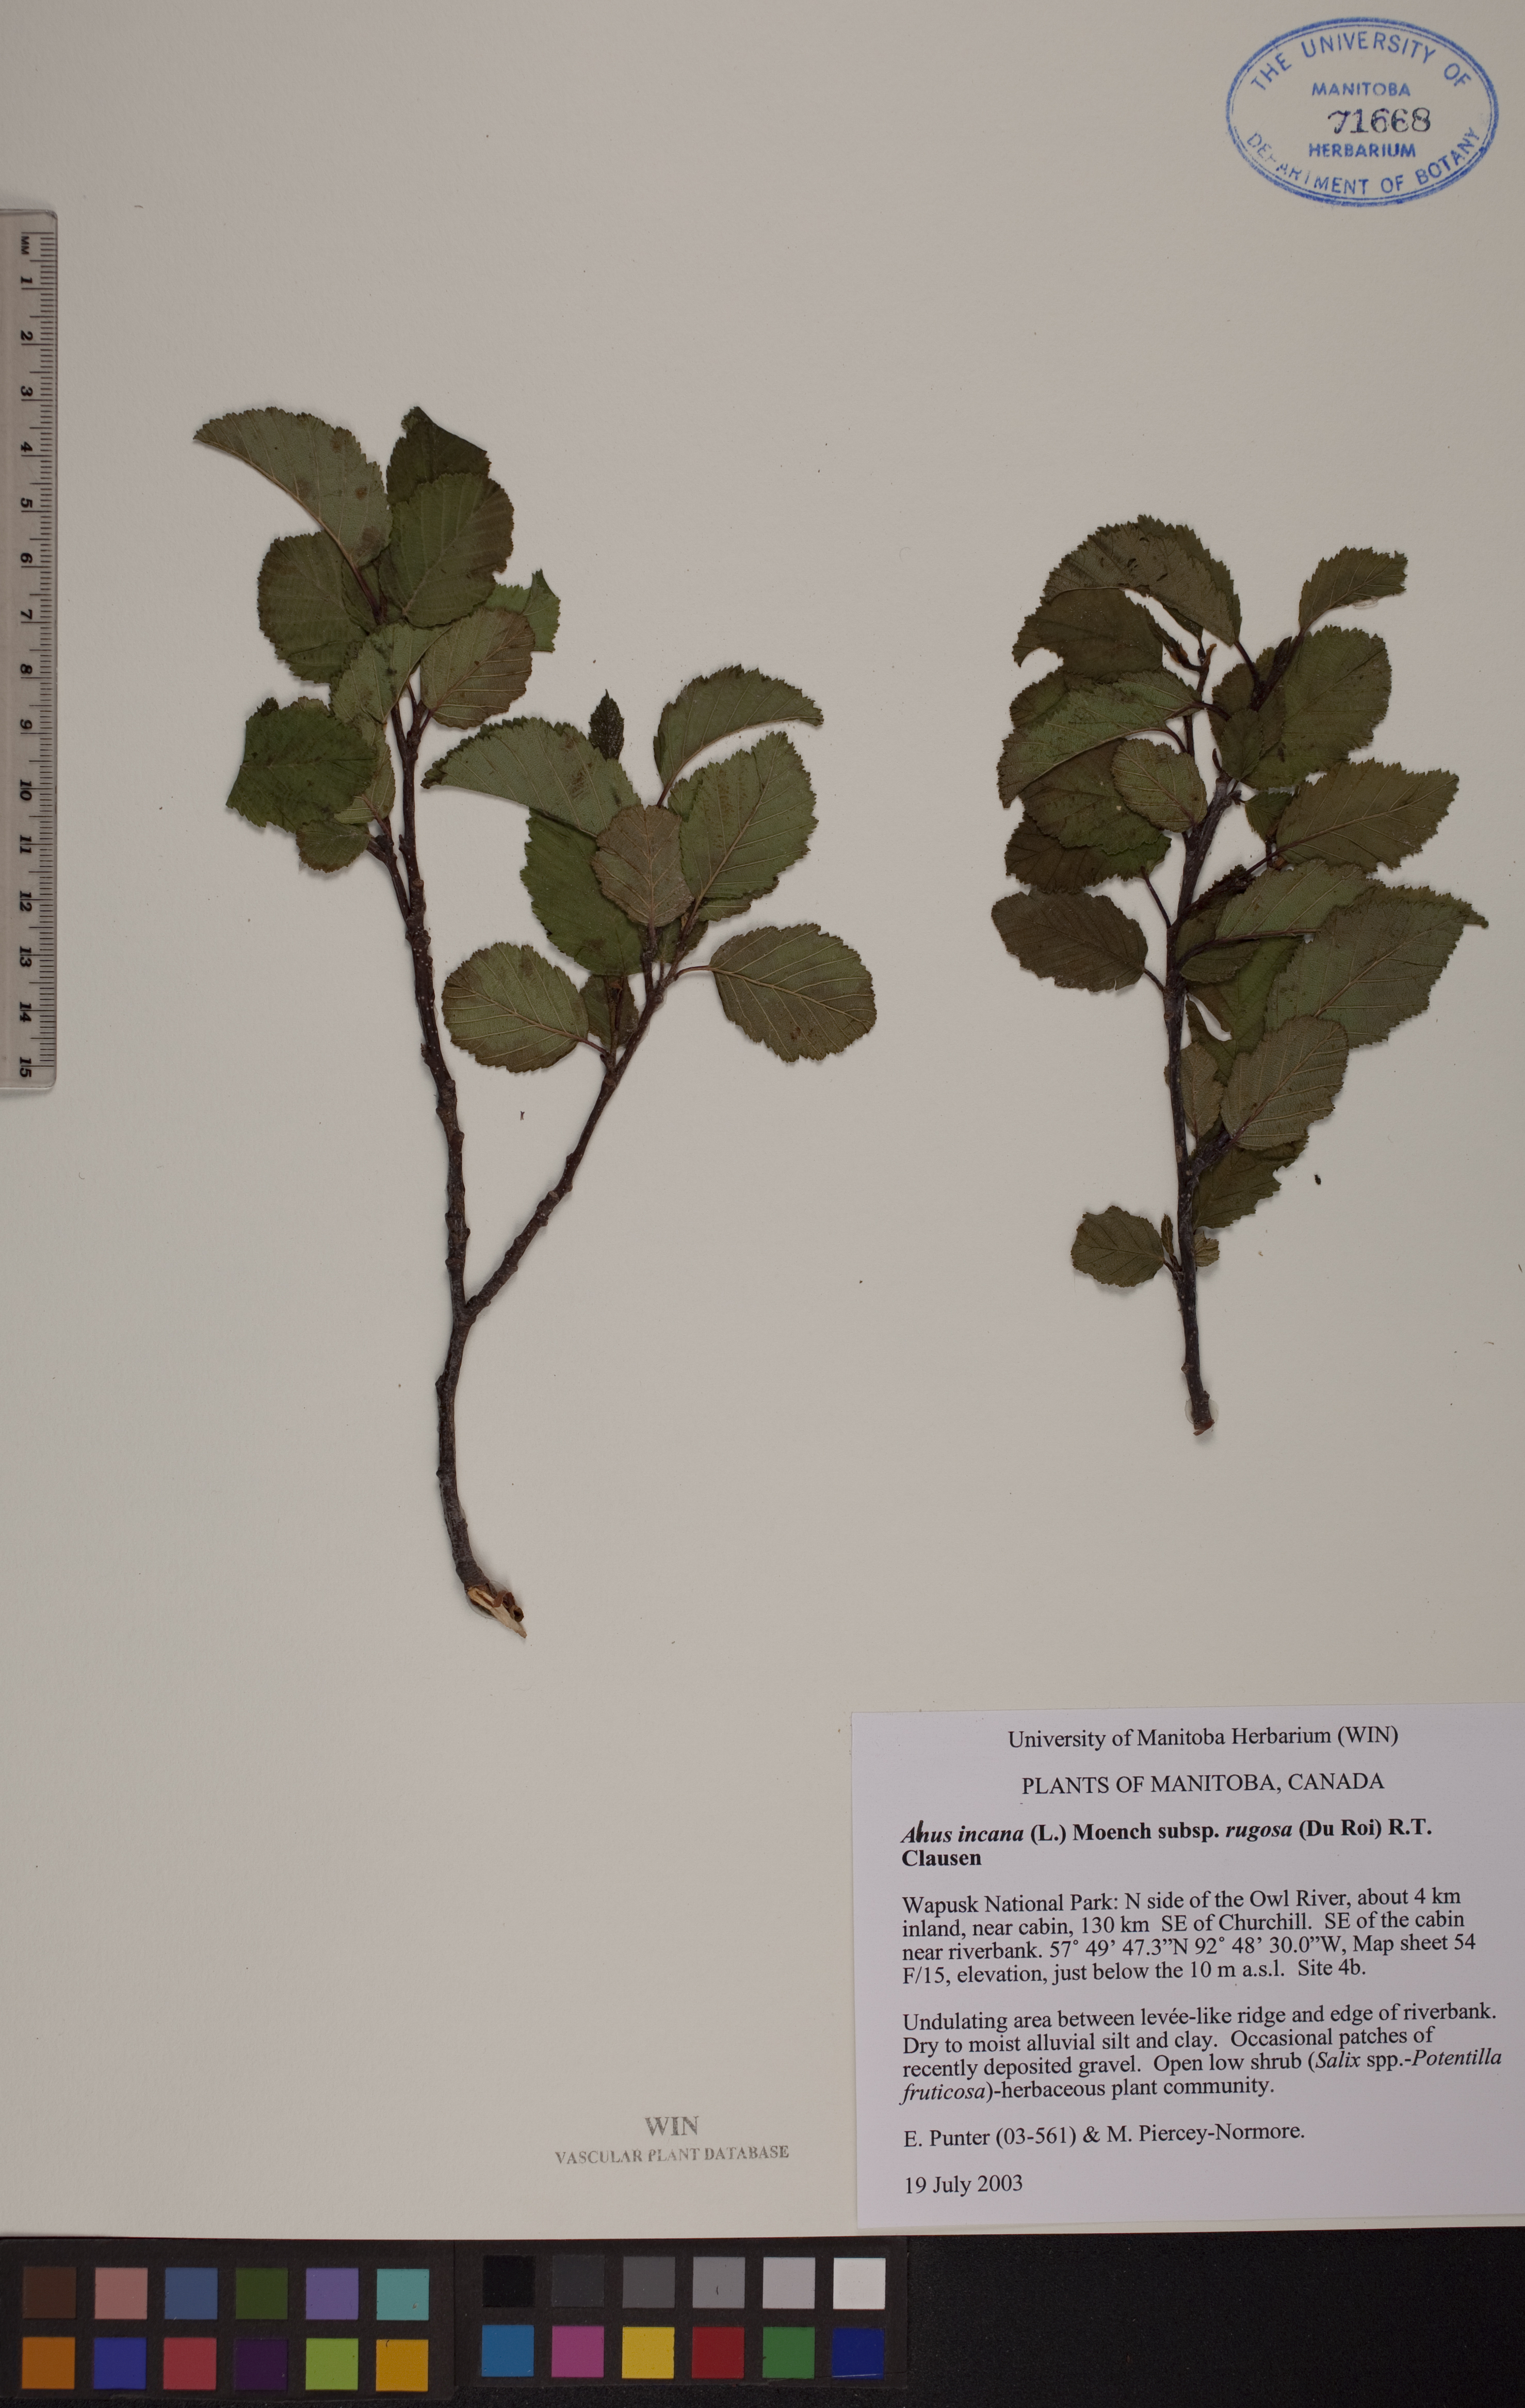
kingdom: Plantae
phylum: Tracheophyta
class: Magnoliopsida
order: Fagales
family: Betulaceae
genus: Alnus
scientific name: Alnus incana
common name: Grey alder
